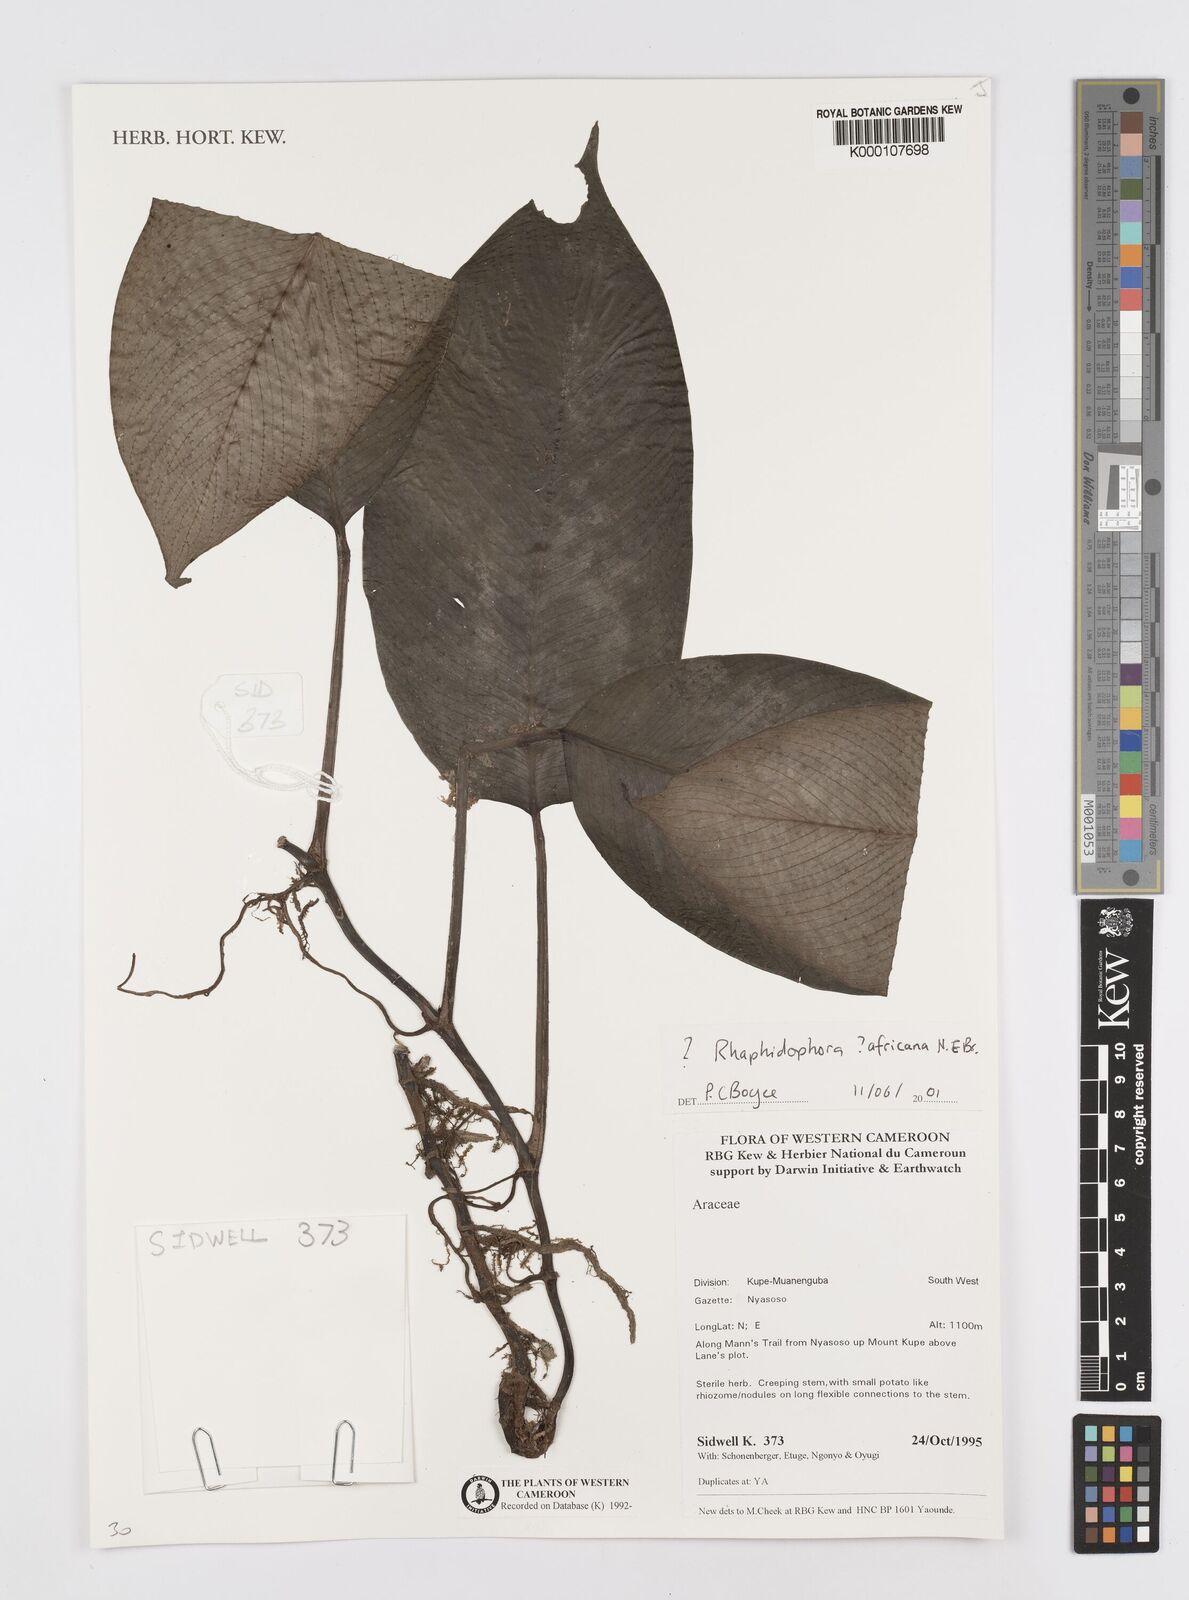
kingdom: Plantae
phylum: Tracheophyta
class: Liliopsida
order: Alismatales
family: Araceae
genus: Rhaphidophora
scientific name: Rhaphidophora africana
